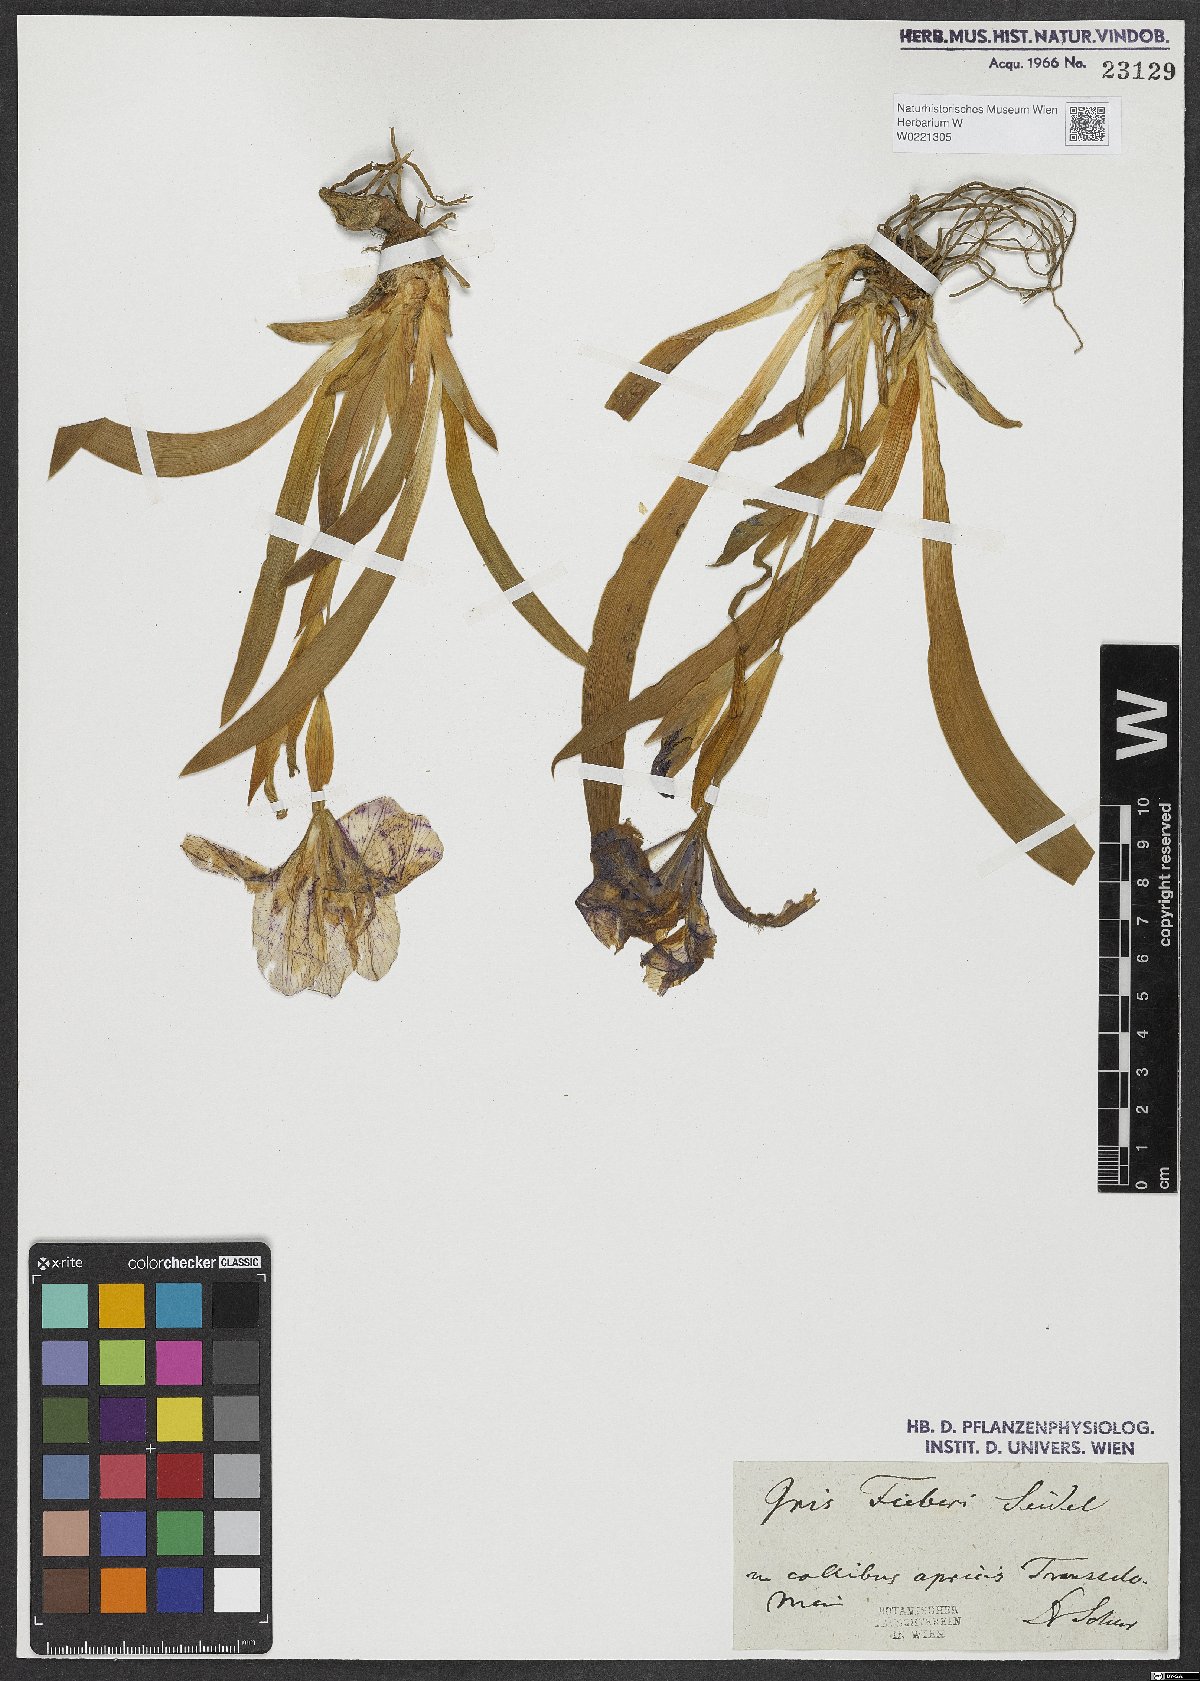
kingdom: Plantae
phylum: Tracheophyta
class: Liliopsida
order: Asparagales
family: Iridaceae
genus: Iris
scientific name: Iris aphylla
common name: Stool iris
